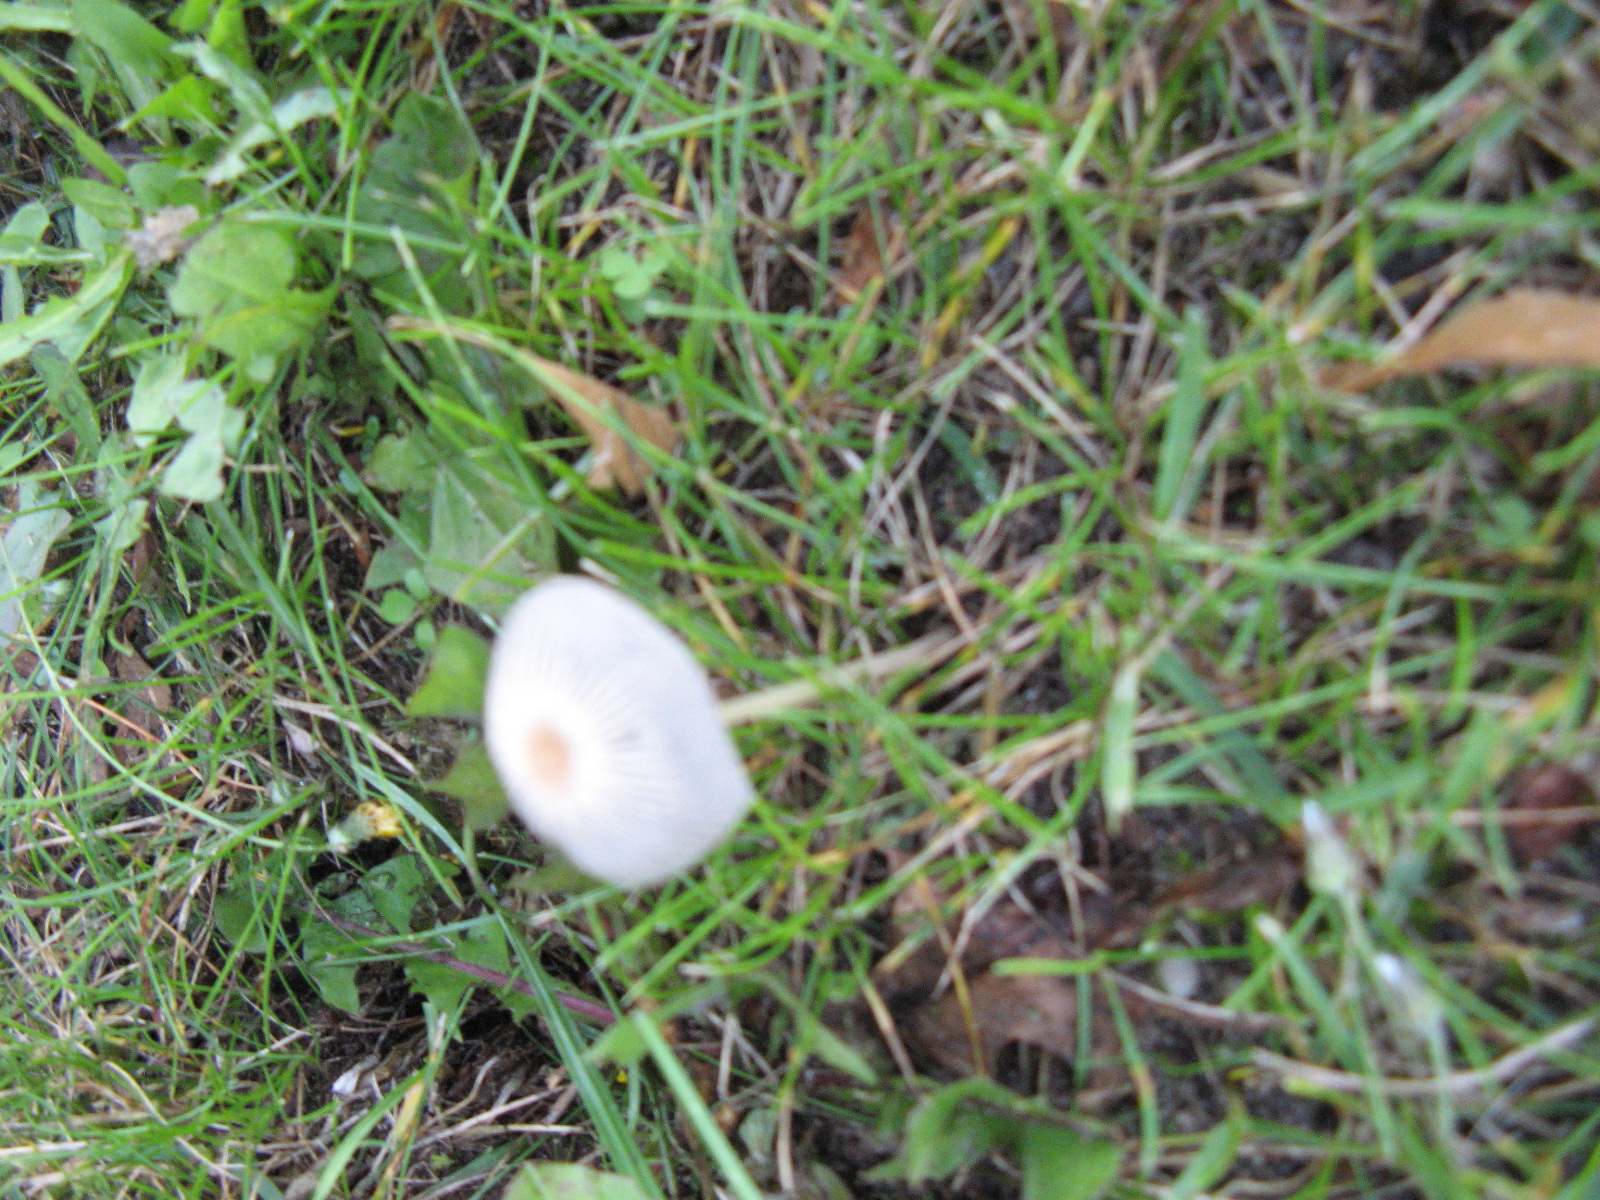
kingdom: Fungi
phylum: Basidiomycota
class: Agaricomycetes
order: Agaricales
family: Psathyrellaceae
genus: Parasola
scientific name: Parasola
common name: hjulhat
